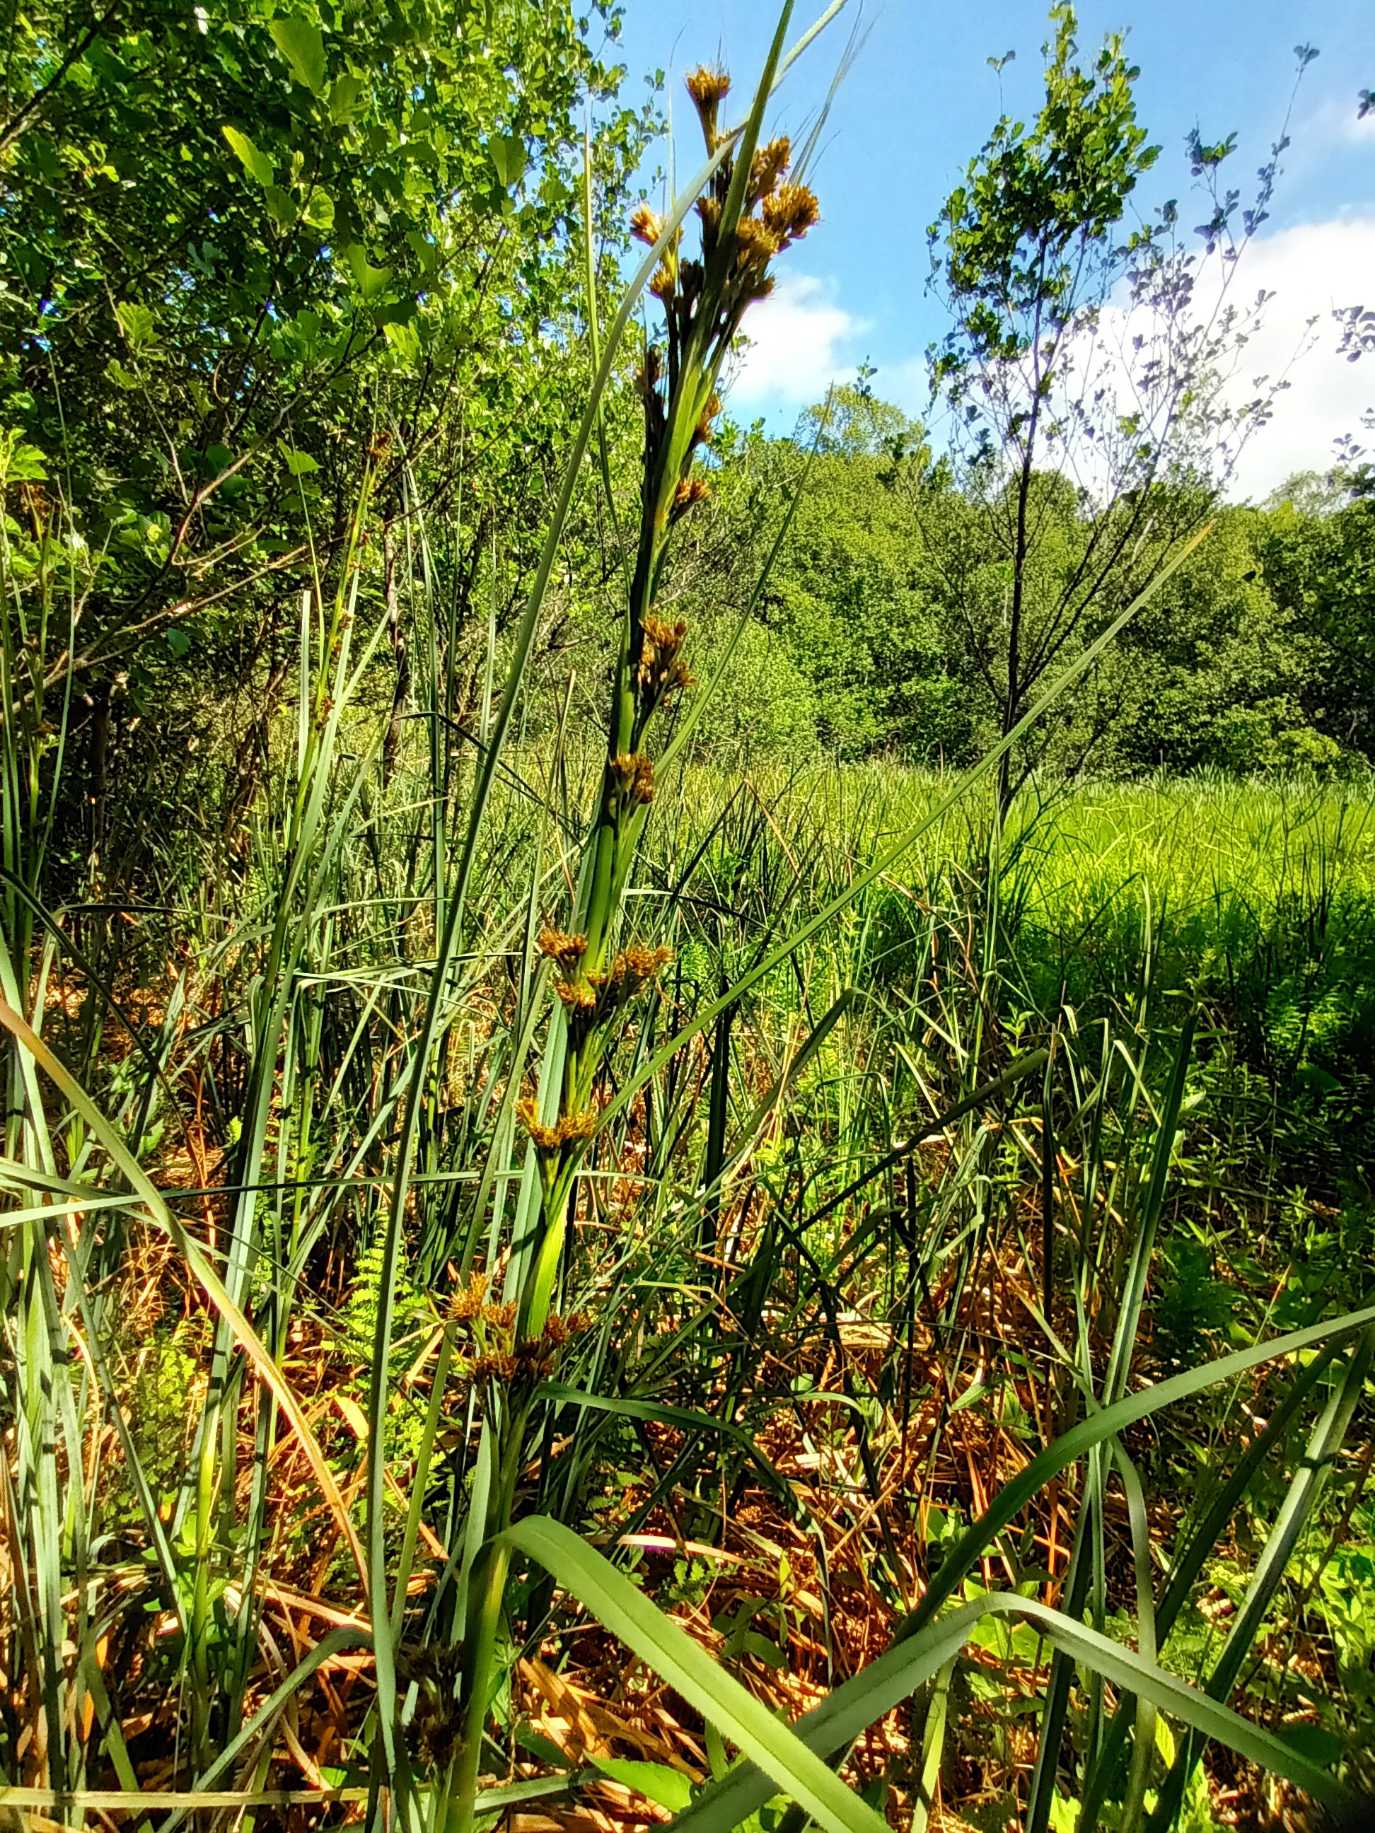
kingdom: Plantae
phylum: Tracheophyta
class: Liliopsida
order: Poales
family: Cyperaceae
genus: Cladium
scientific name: Cladium mariscus
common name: Hvas avneknippe
